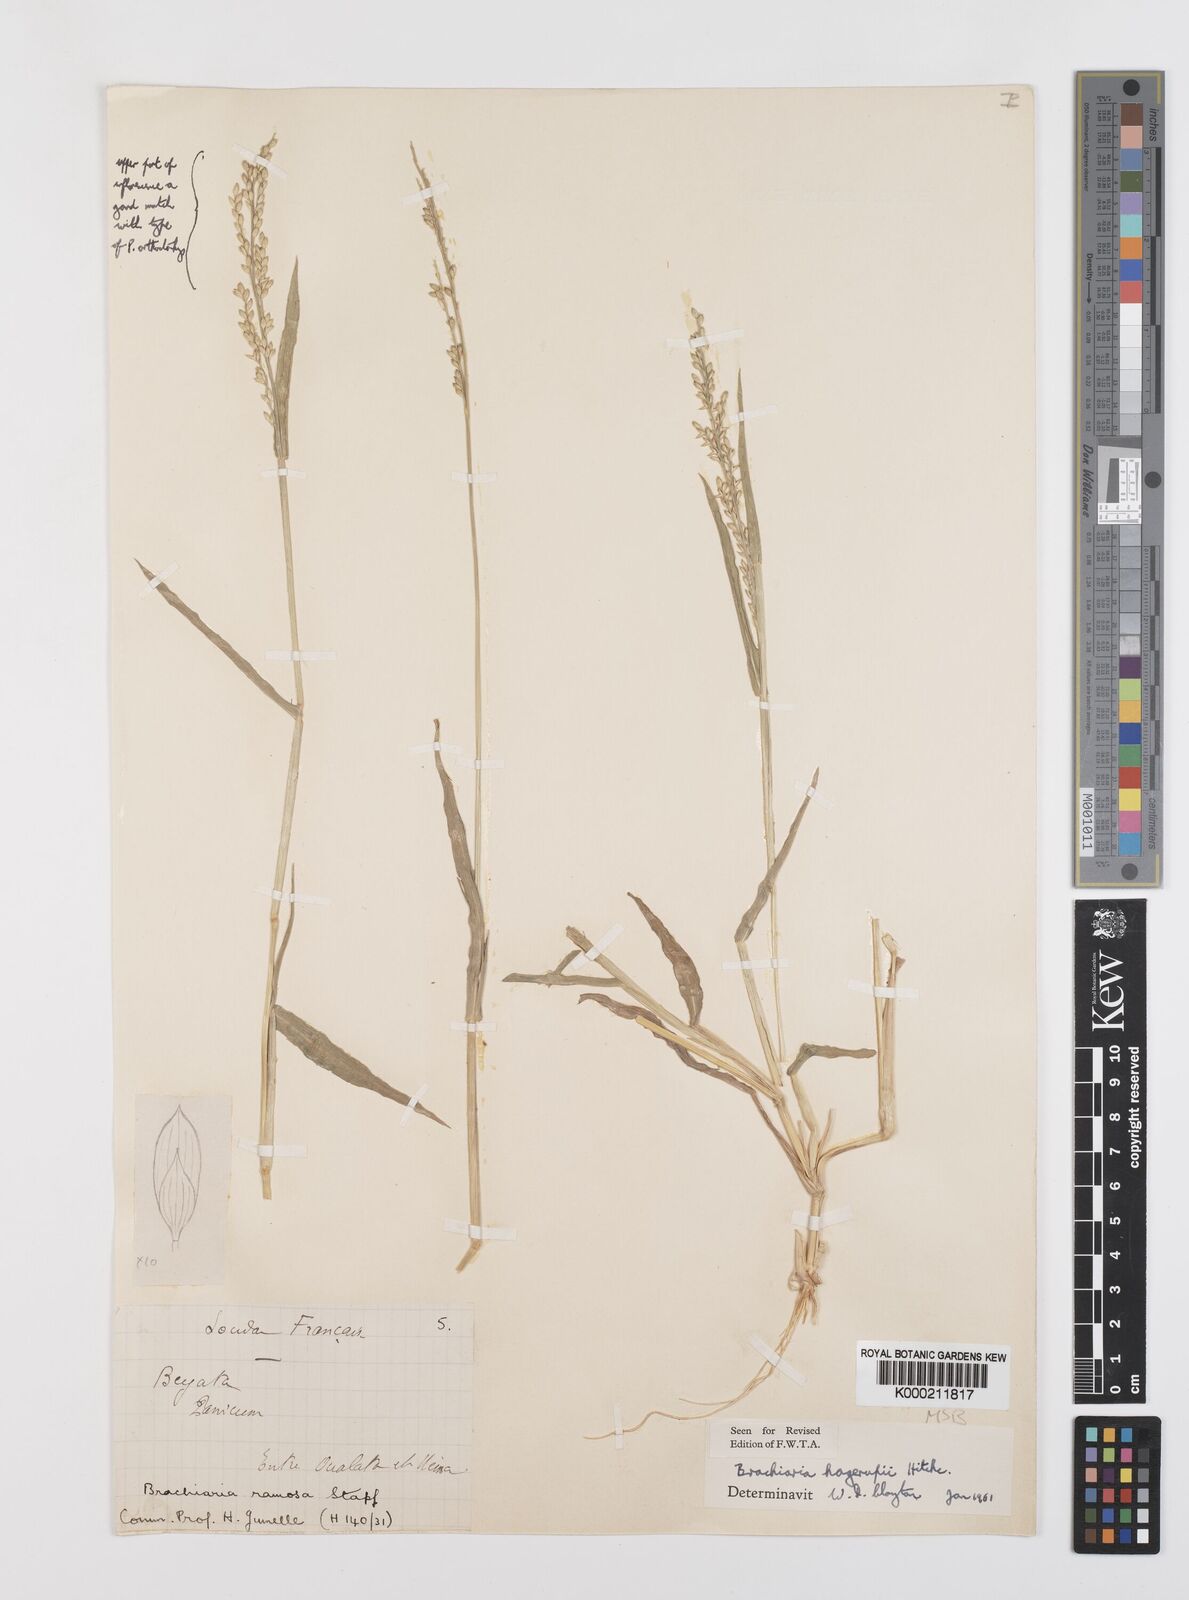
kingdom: Plantae
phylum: Tracheophyta
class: Liliopsida
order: Poales
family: Poaceae
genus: Urochloa
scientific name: Urochloa orthostachys
